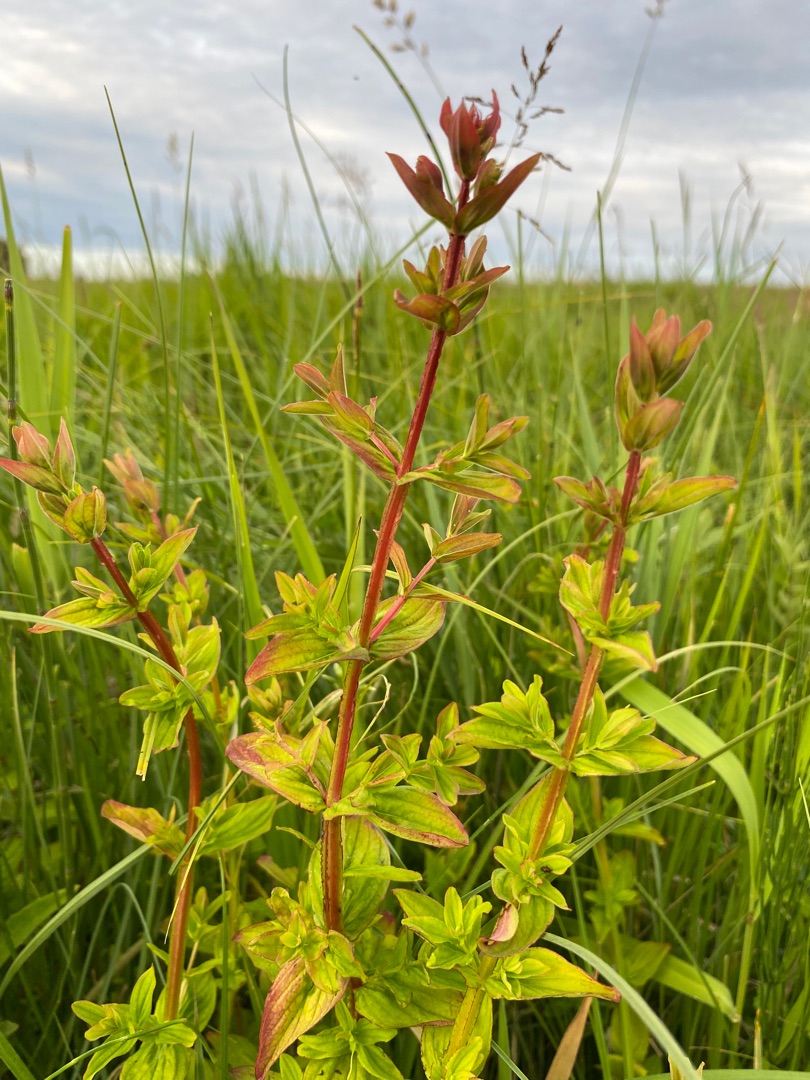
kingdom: Plantae
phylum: Tracheophyta
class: Magnoliopsida
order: Malpighiales
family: Hypericaceae
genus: Hypericum
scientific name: Hypericum tetrapterum
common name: Vinget perikon
